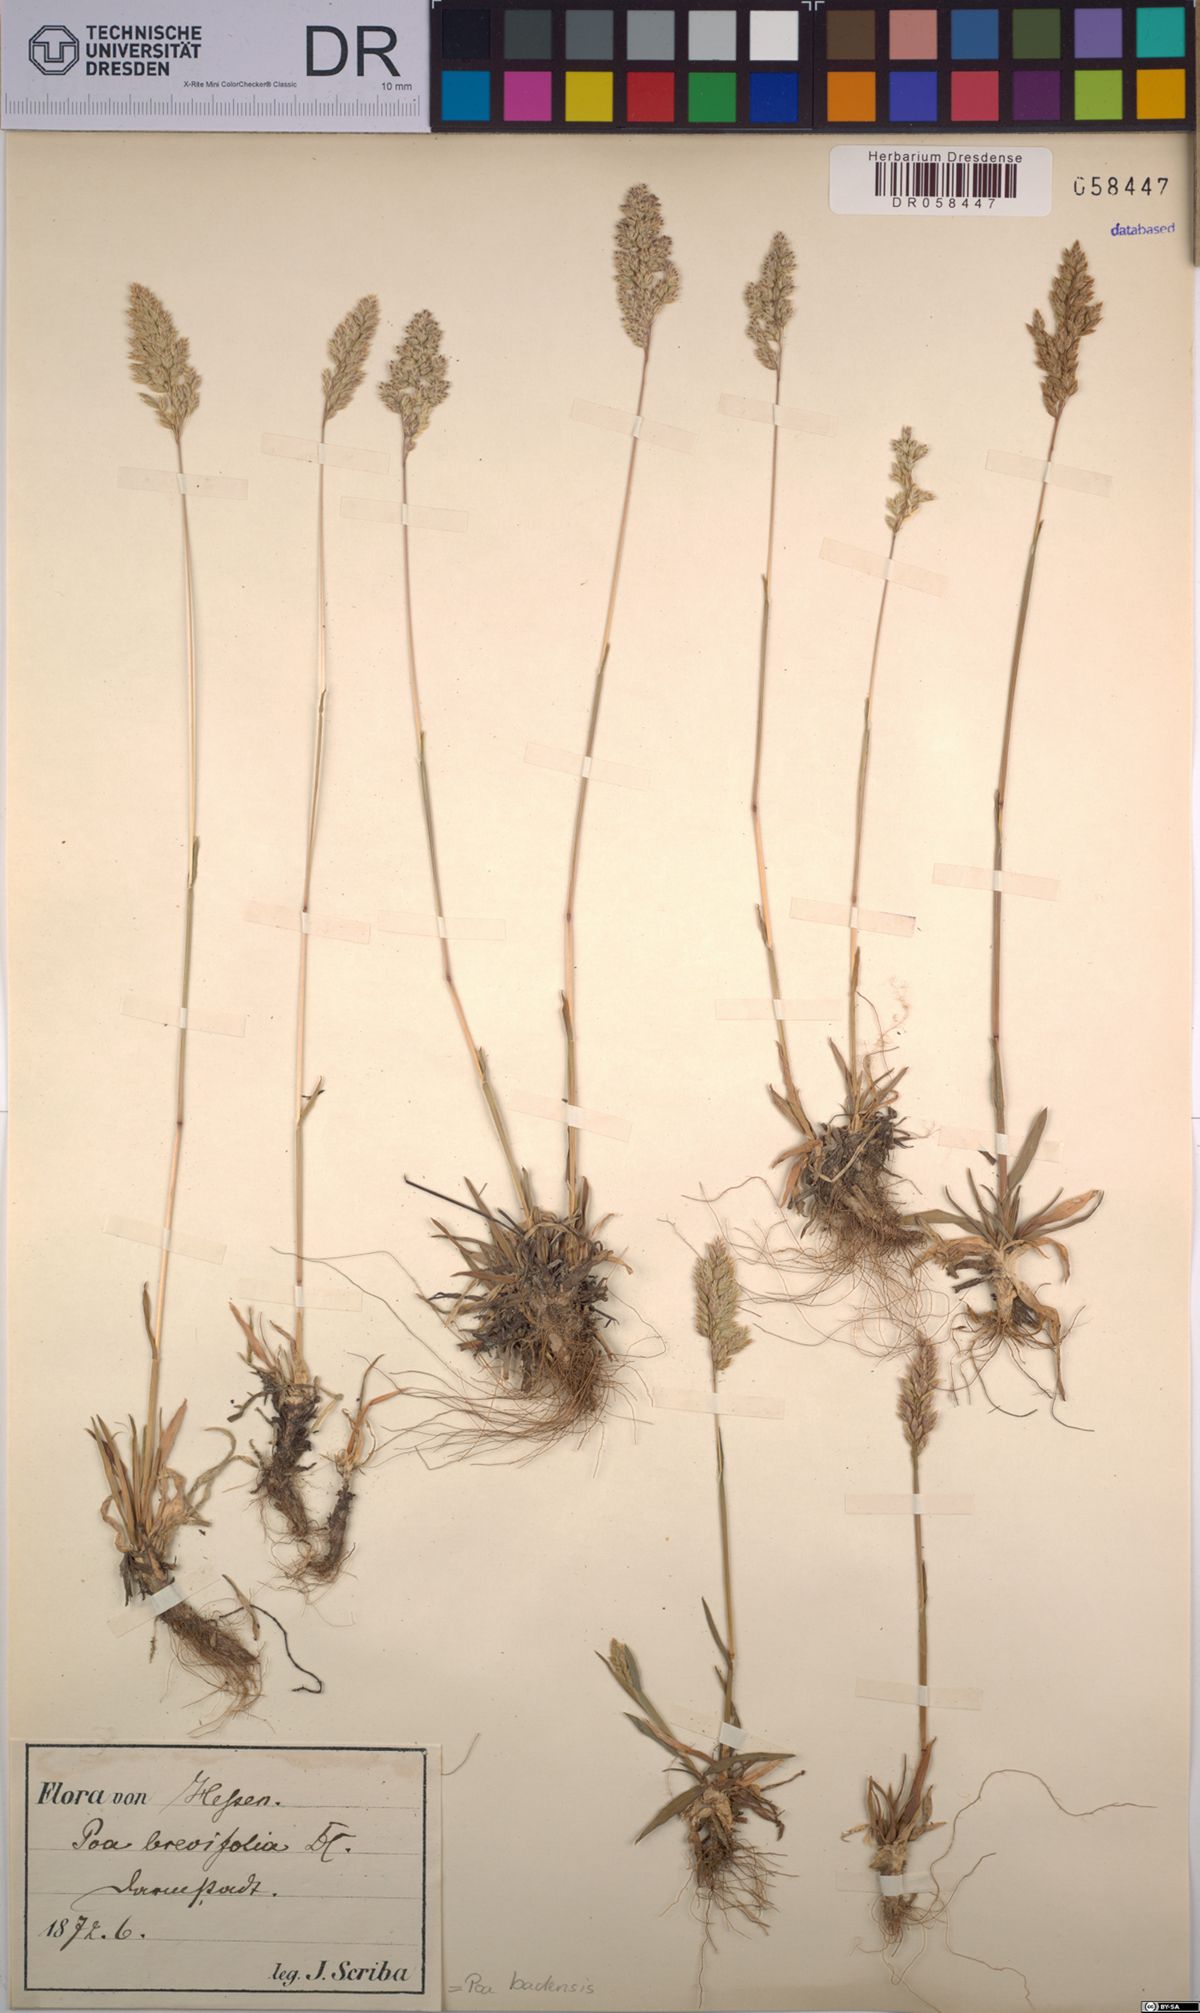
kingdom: Plantae
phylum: Tracheophyta
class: Liliopsida
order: Poales
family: Poaceae
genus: Poa
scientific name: Poa badensis
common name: Baden's bluegrass
